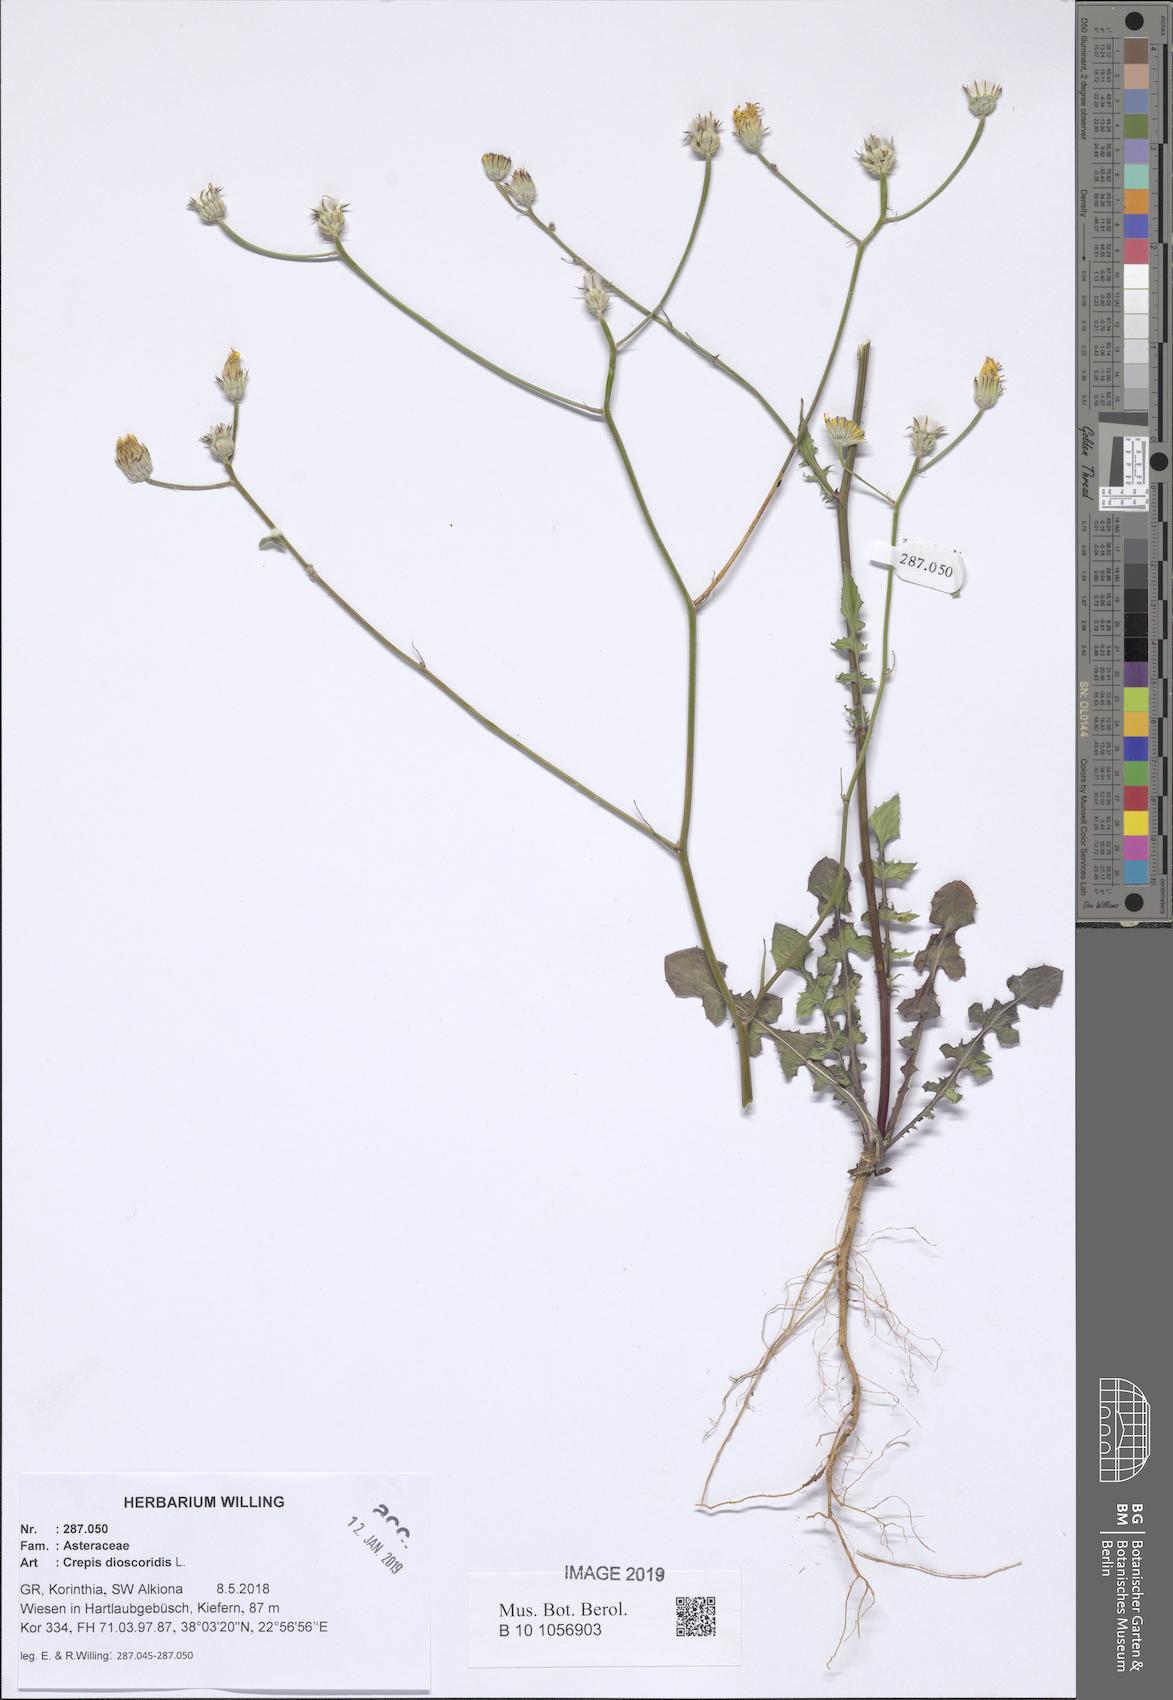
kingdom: Plantae
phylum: Tracheophyta
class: Magnoliopsida
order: Asterales
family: Asteraceae
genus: Crepis
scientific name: Crepis dioscoridis
